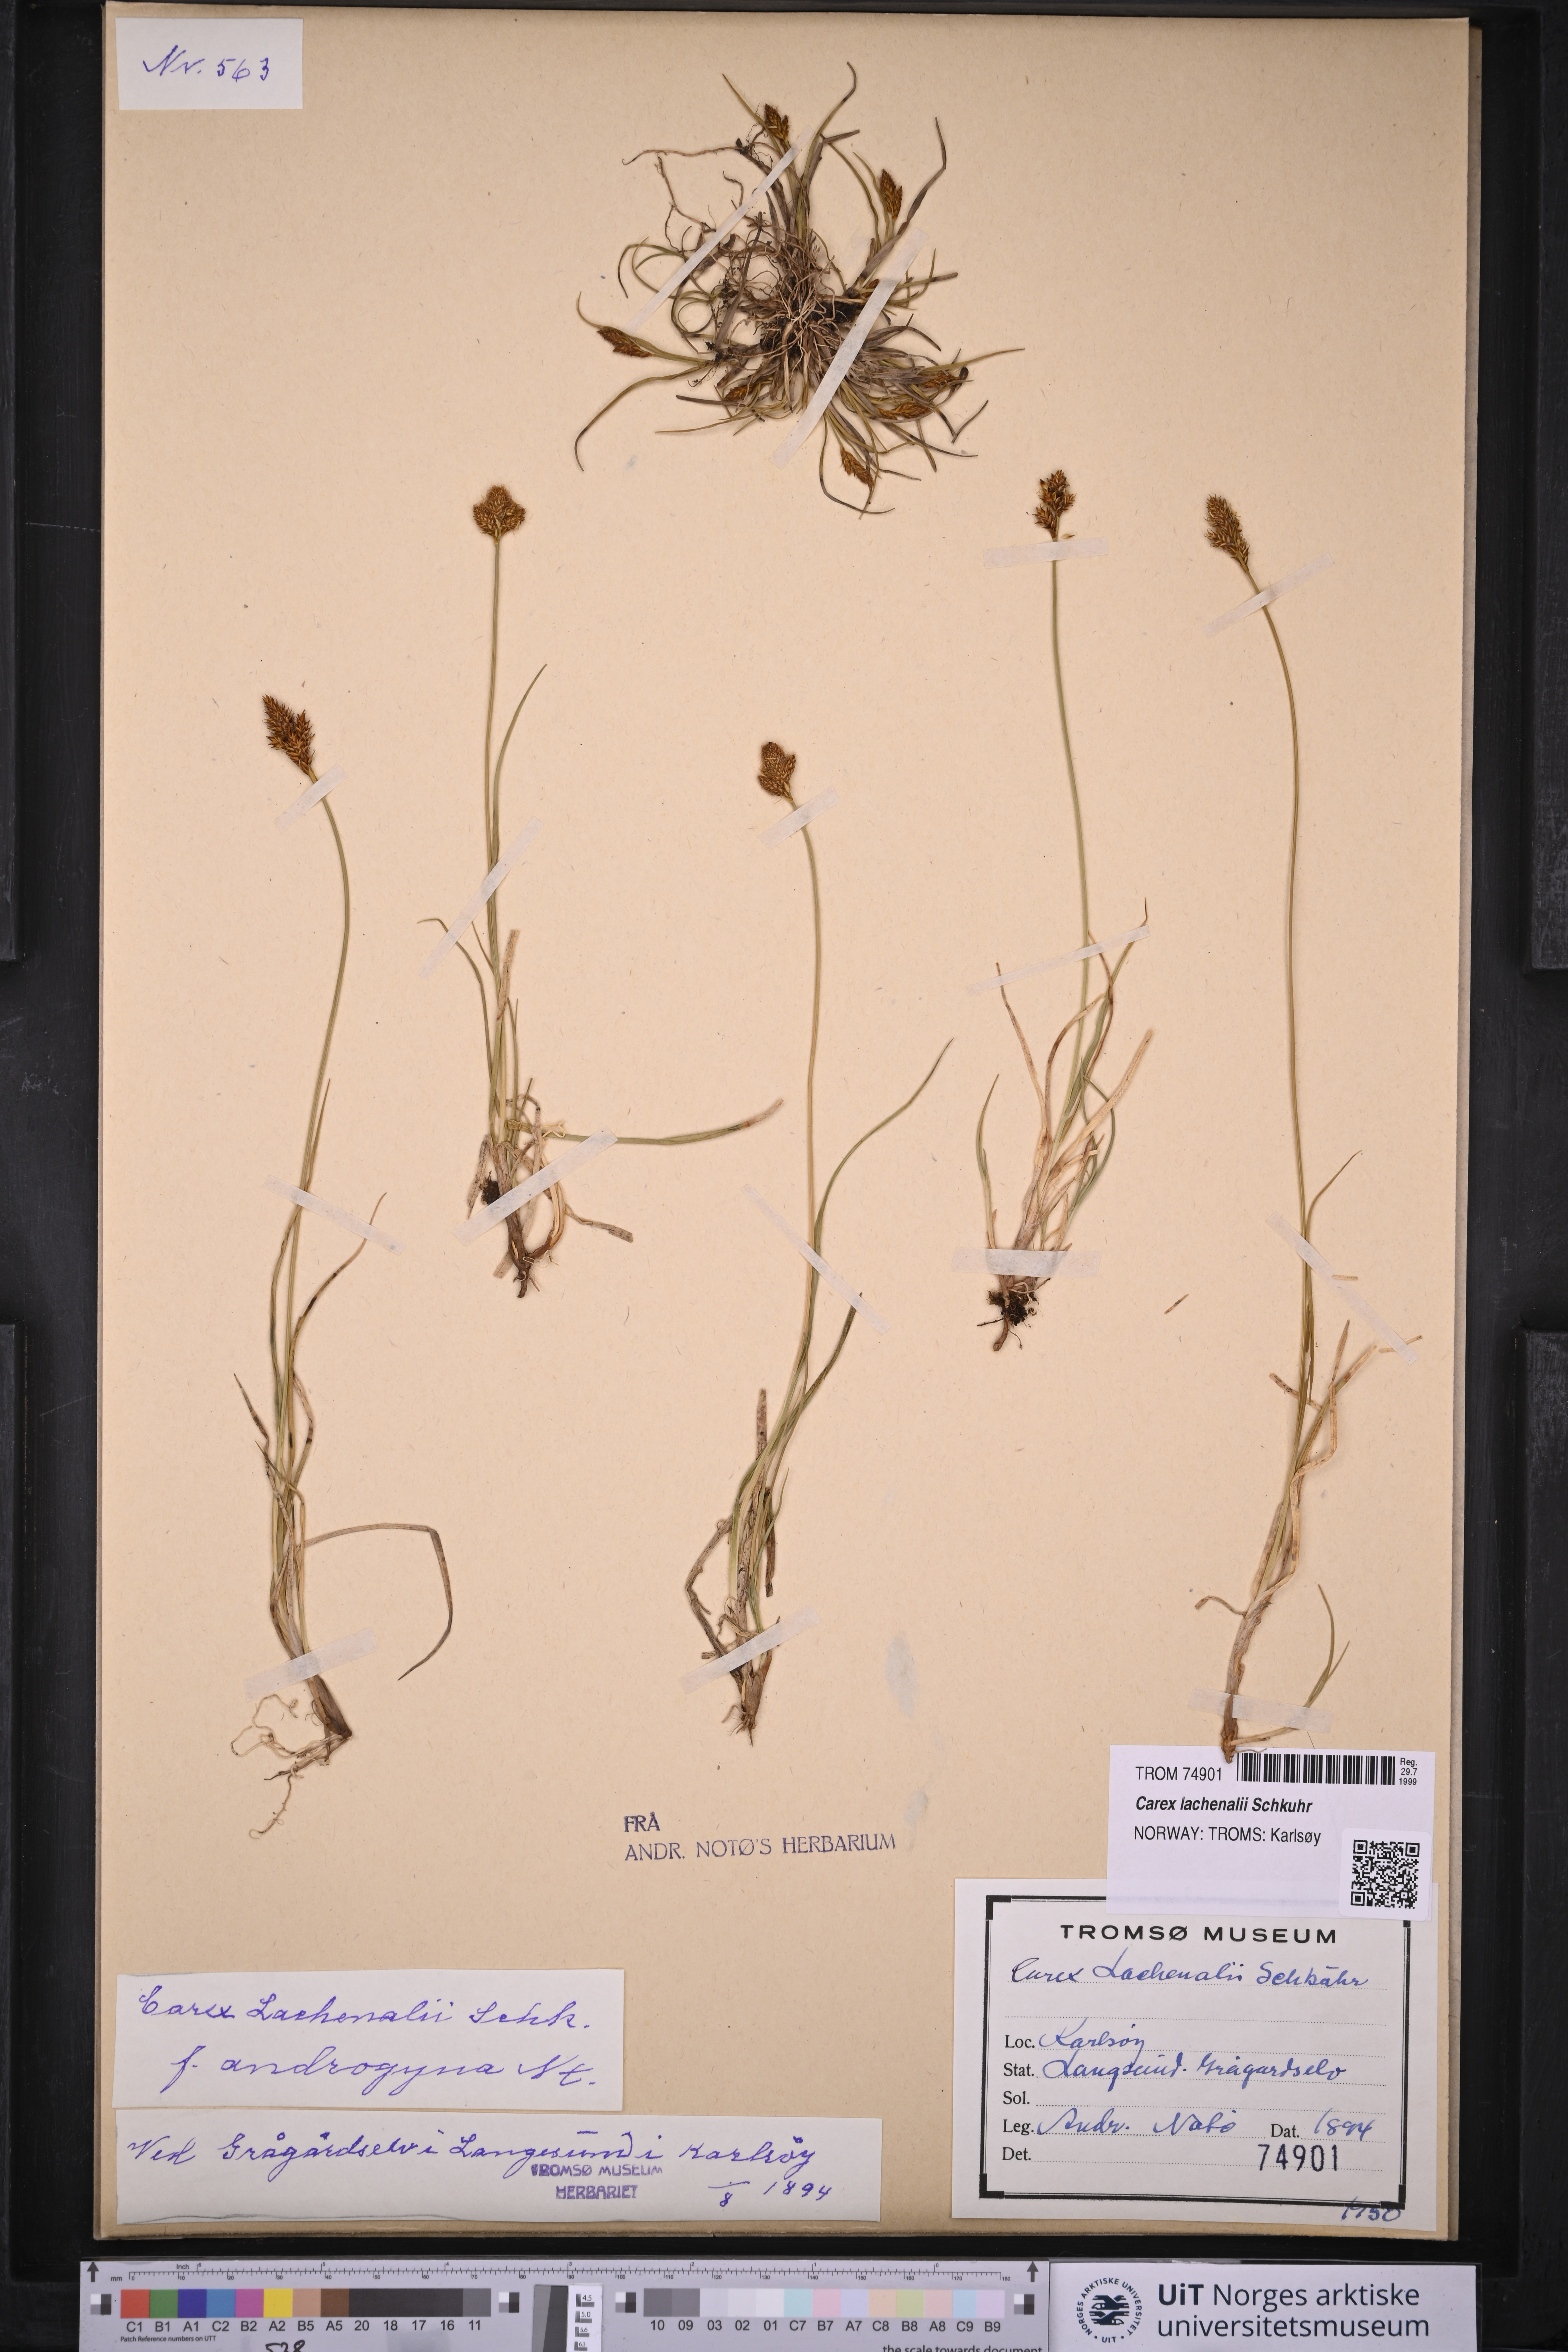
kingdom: Plantae
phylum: Tracheophyta
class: Liliopsida
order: Poales
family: Cyperaceae
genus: Carex
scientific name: Carex lachenalii
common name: Hare's-foot sedge
